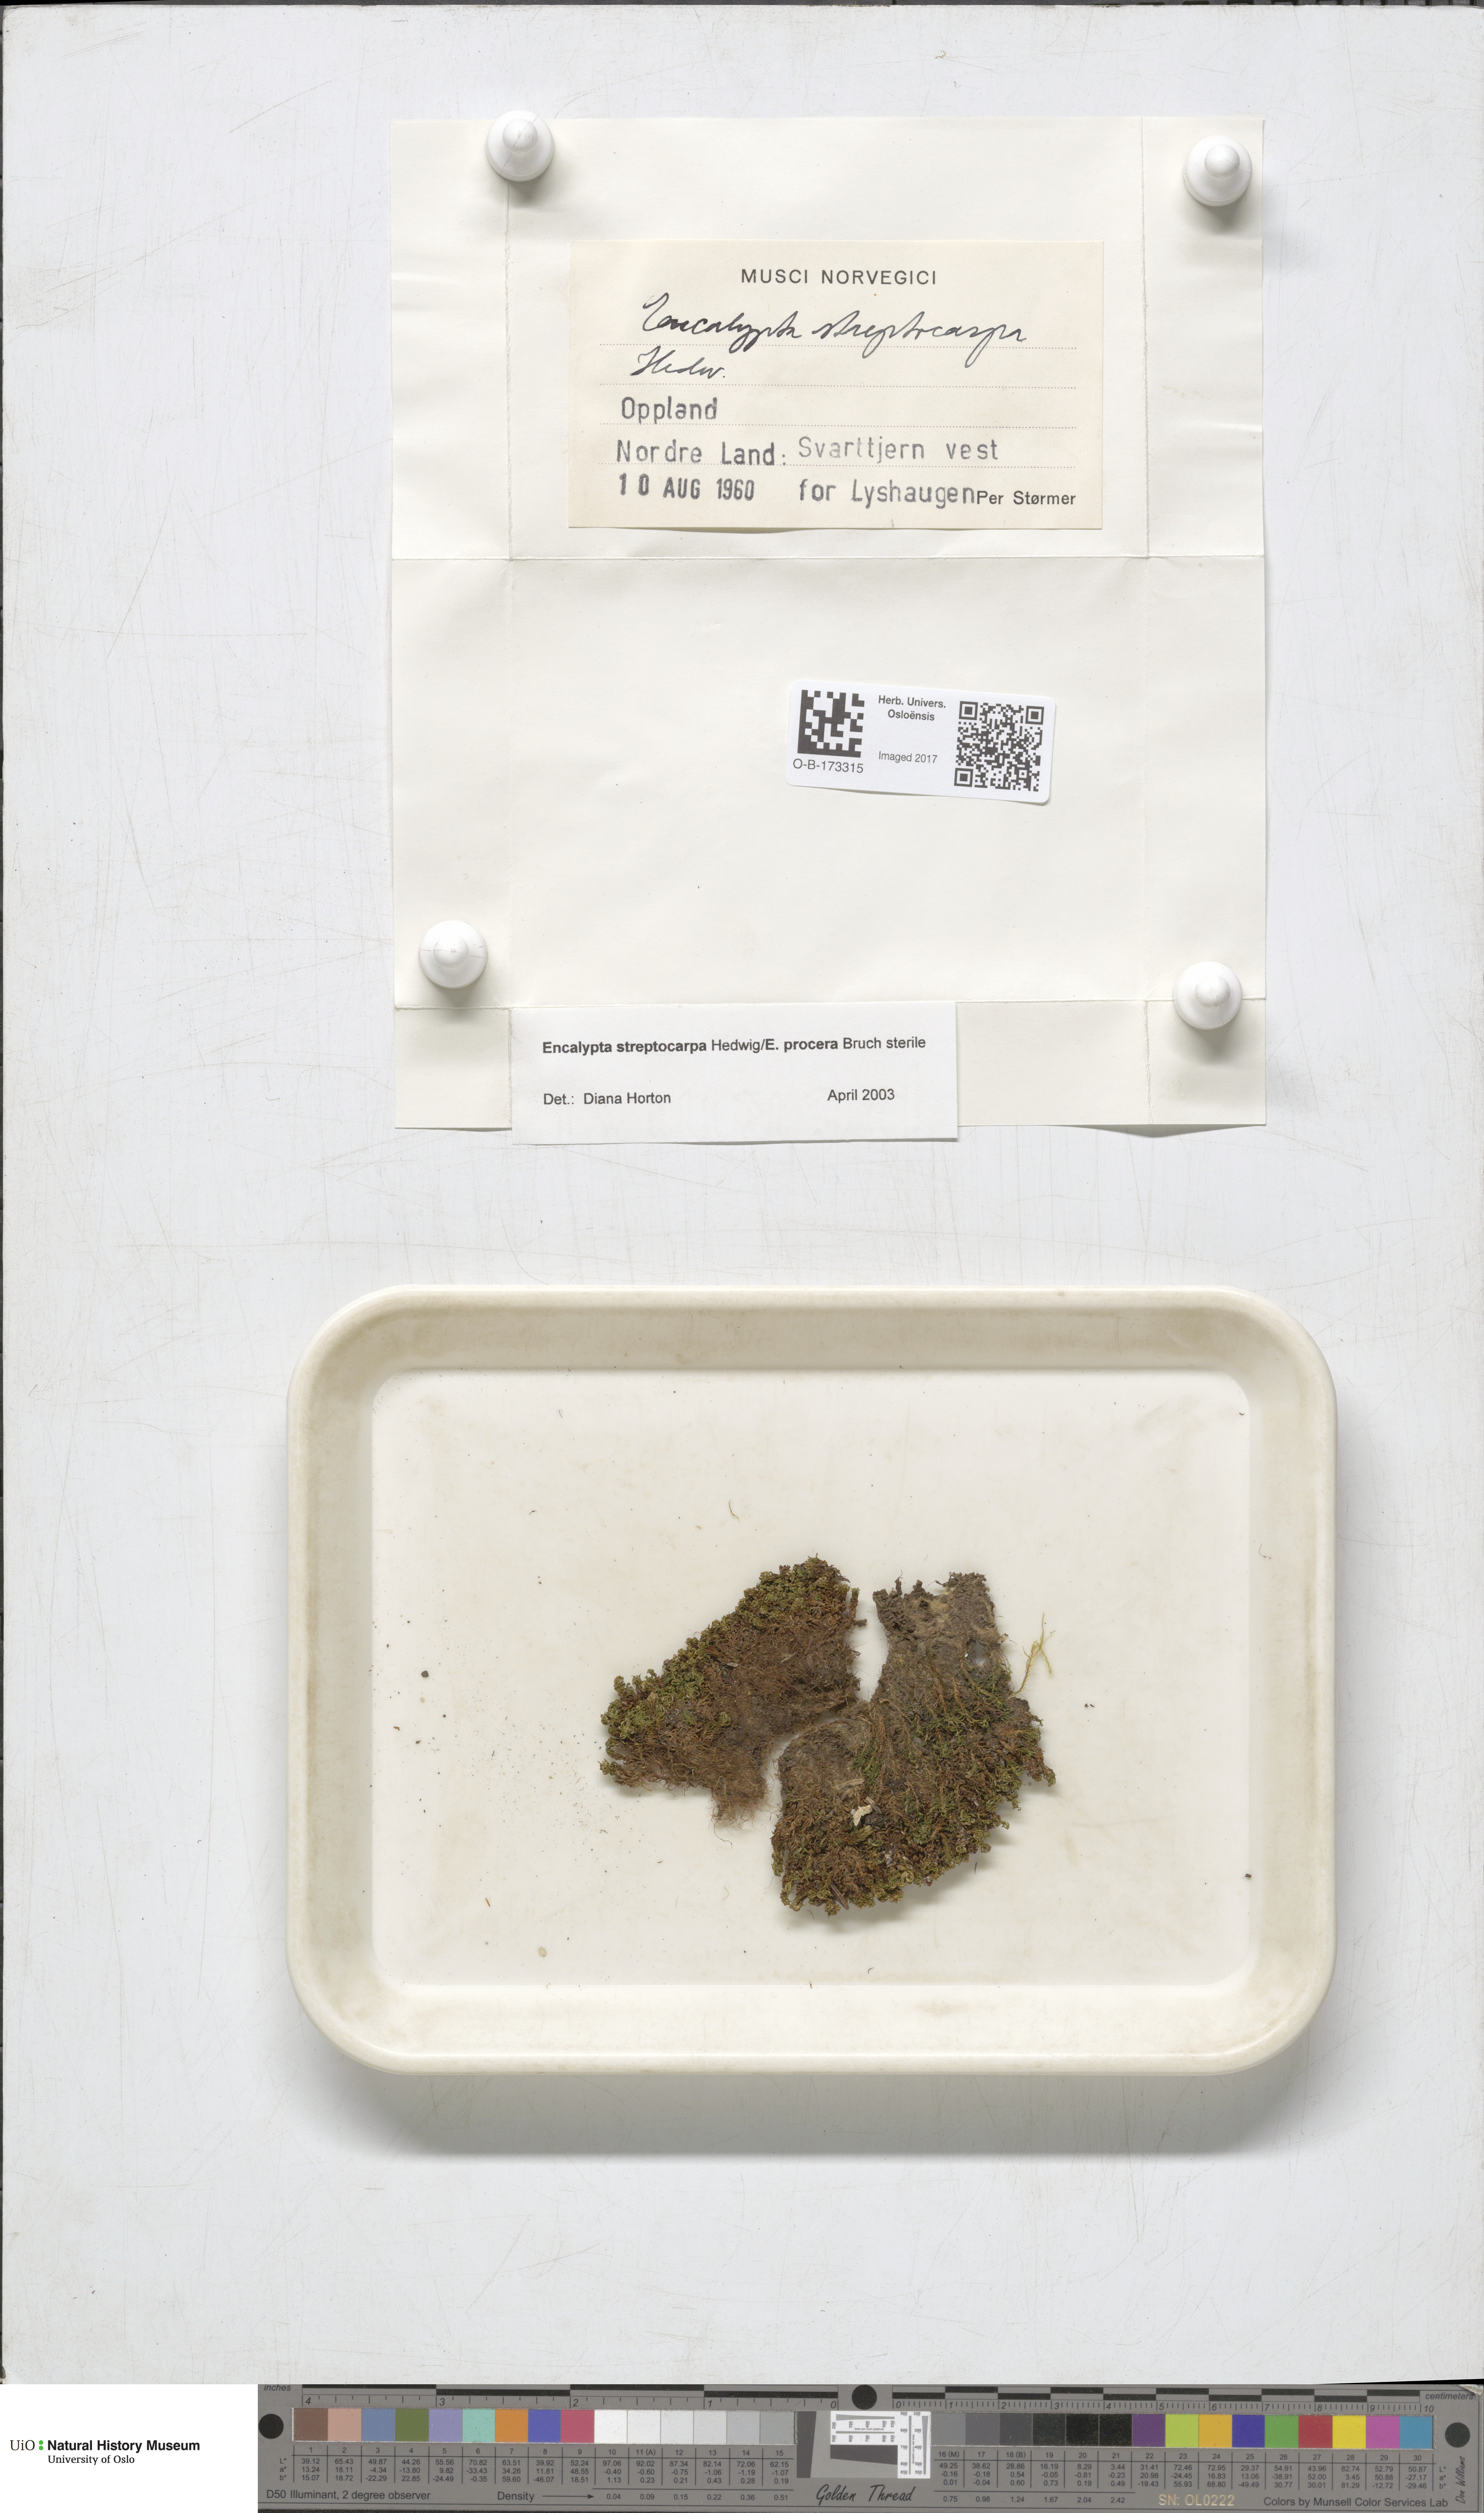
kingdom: Plantae
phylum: Bryophyta
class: Bryopsida
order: Encalyptales
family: Encalyptaceae
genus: Encalypta
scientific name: Encalypta
